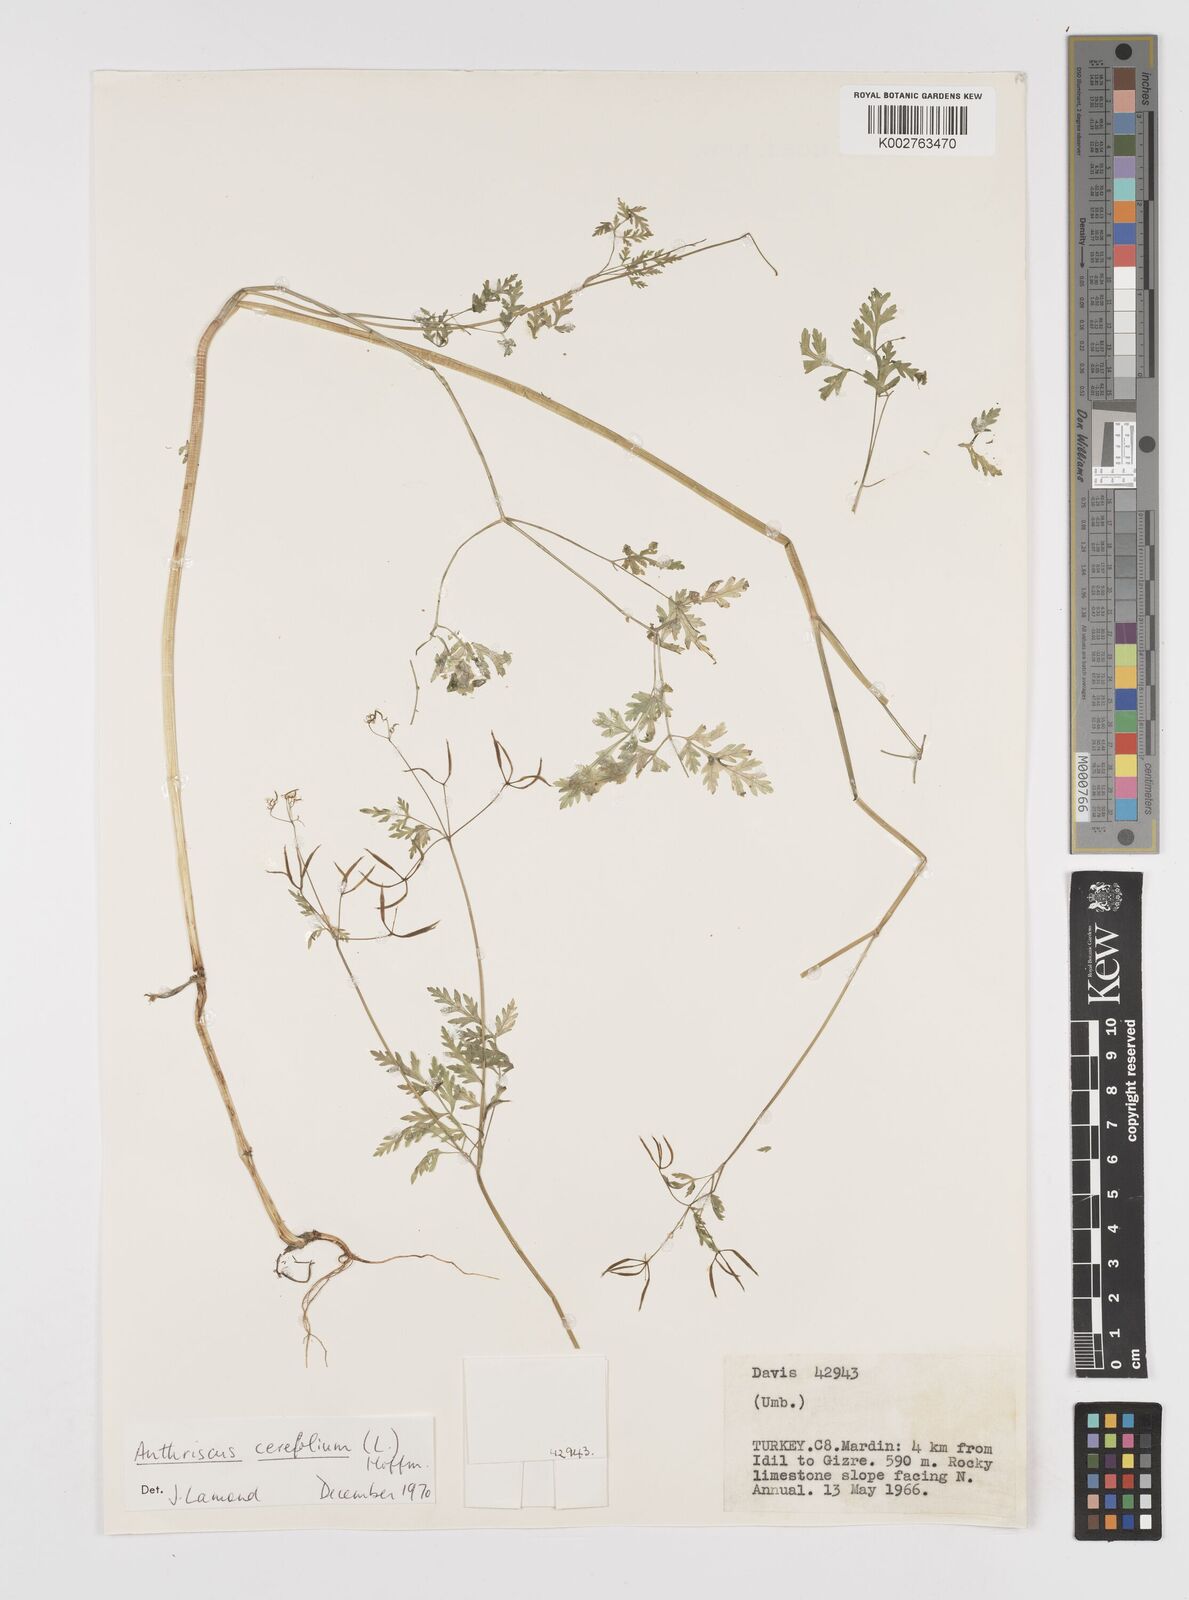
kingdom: Plantae
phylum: Tracheophyta
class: Magnoliopsida
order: Apiales
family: Apiaceae
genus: Anthriscus
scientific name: Anthriscus cerefolium
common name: Garden chervil
